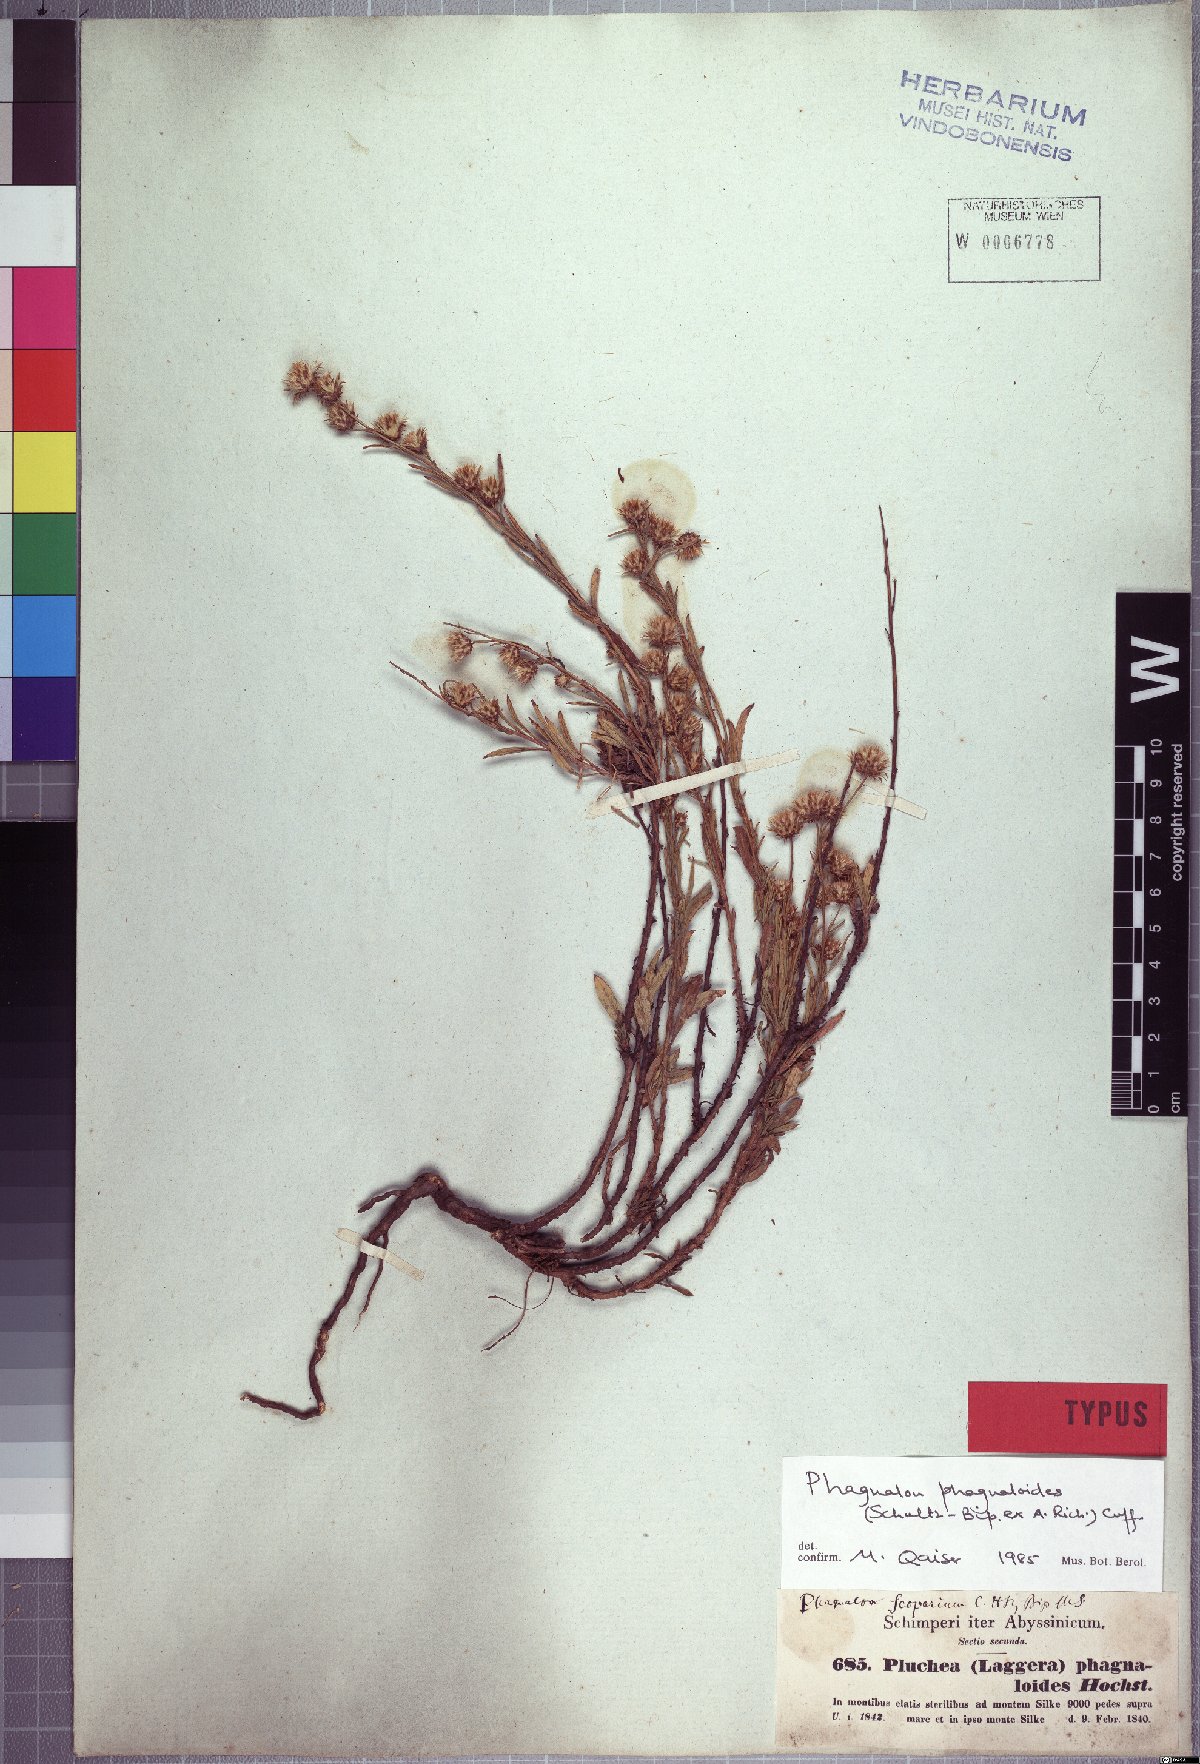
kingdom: Plantae
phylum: Tracheophyta
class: Magnoliopsida
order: Asterales
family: Asteraceae
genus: Phagnalon
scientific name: Phagnalon phagnaloides
